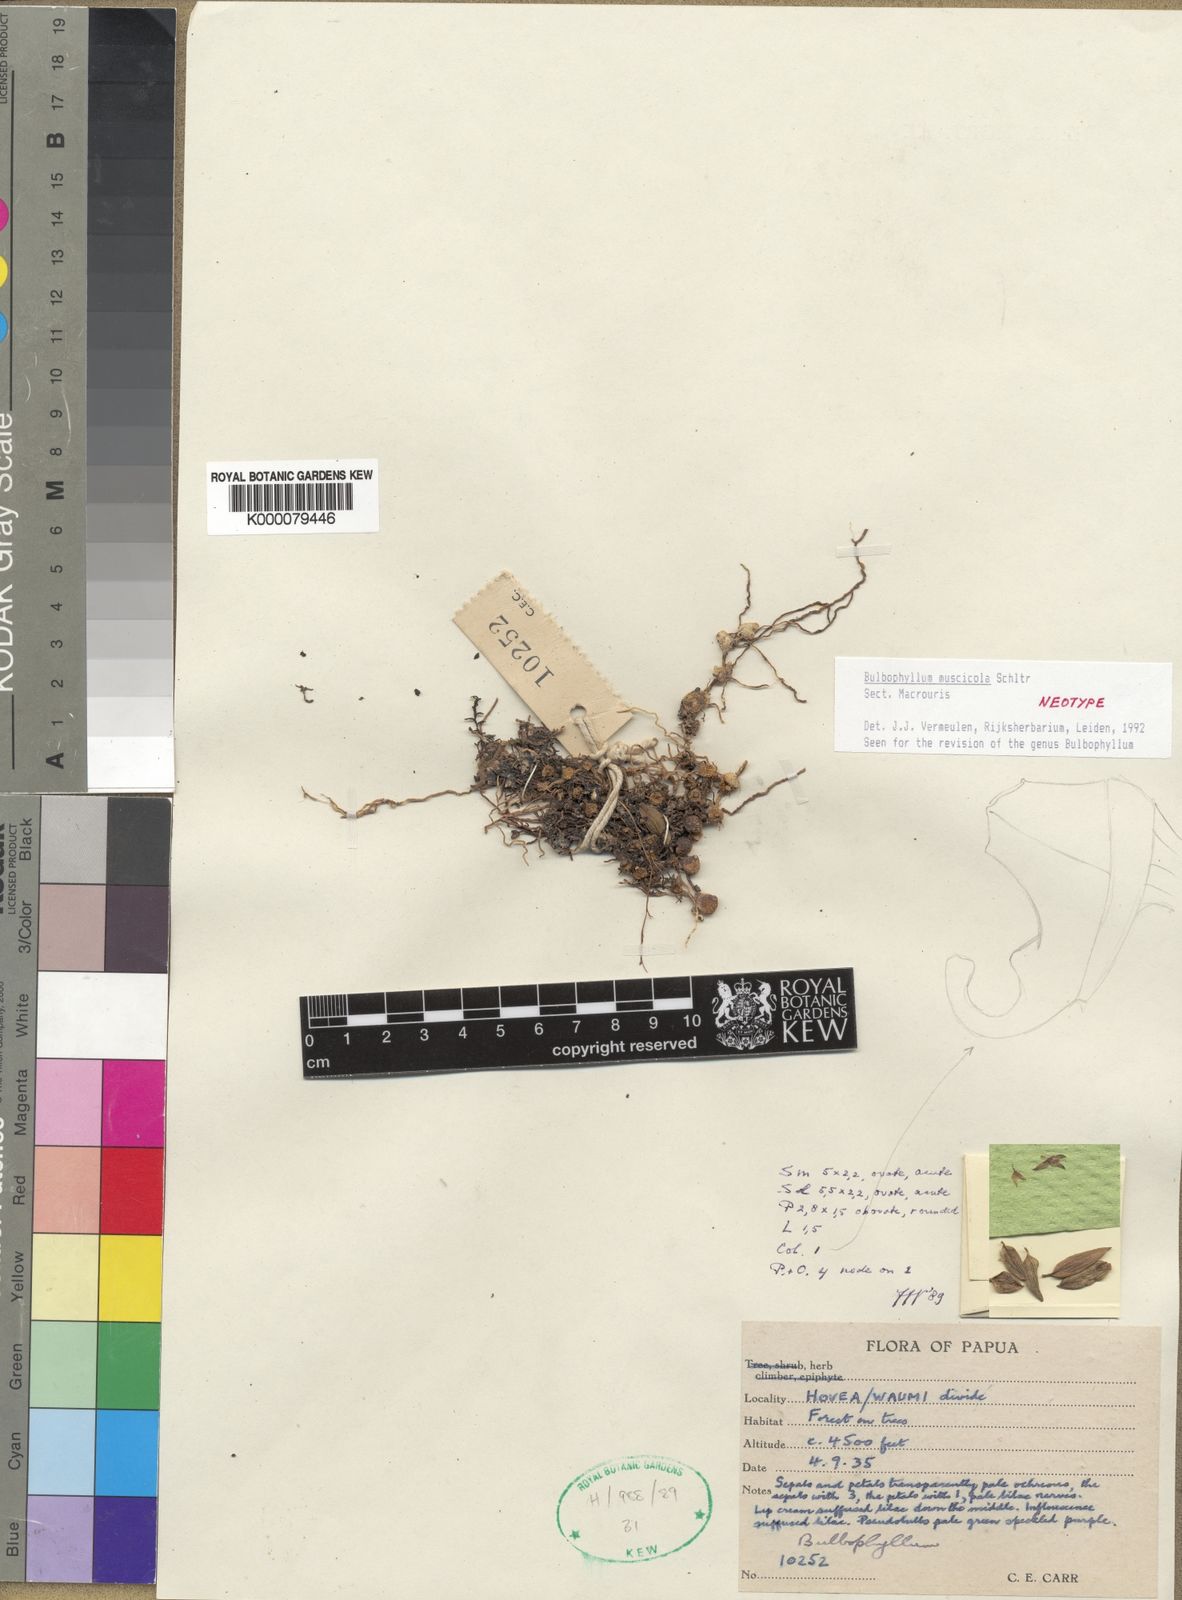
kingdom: Plantae
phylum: Tracheophyta
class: Liliopsida
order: Asparagales
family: Orchidaceae
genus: Bulbophyllum
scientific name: Bulbophyllum
